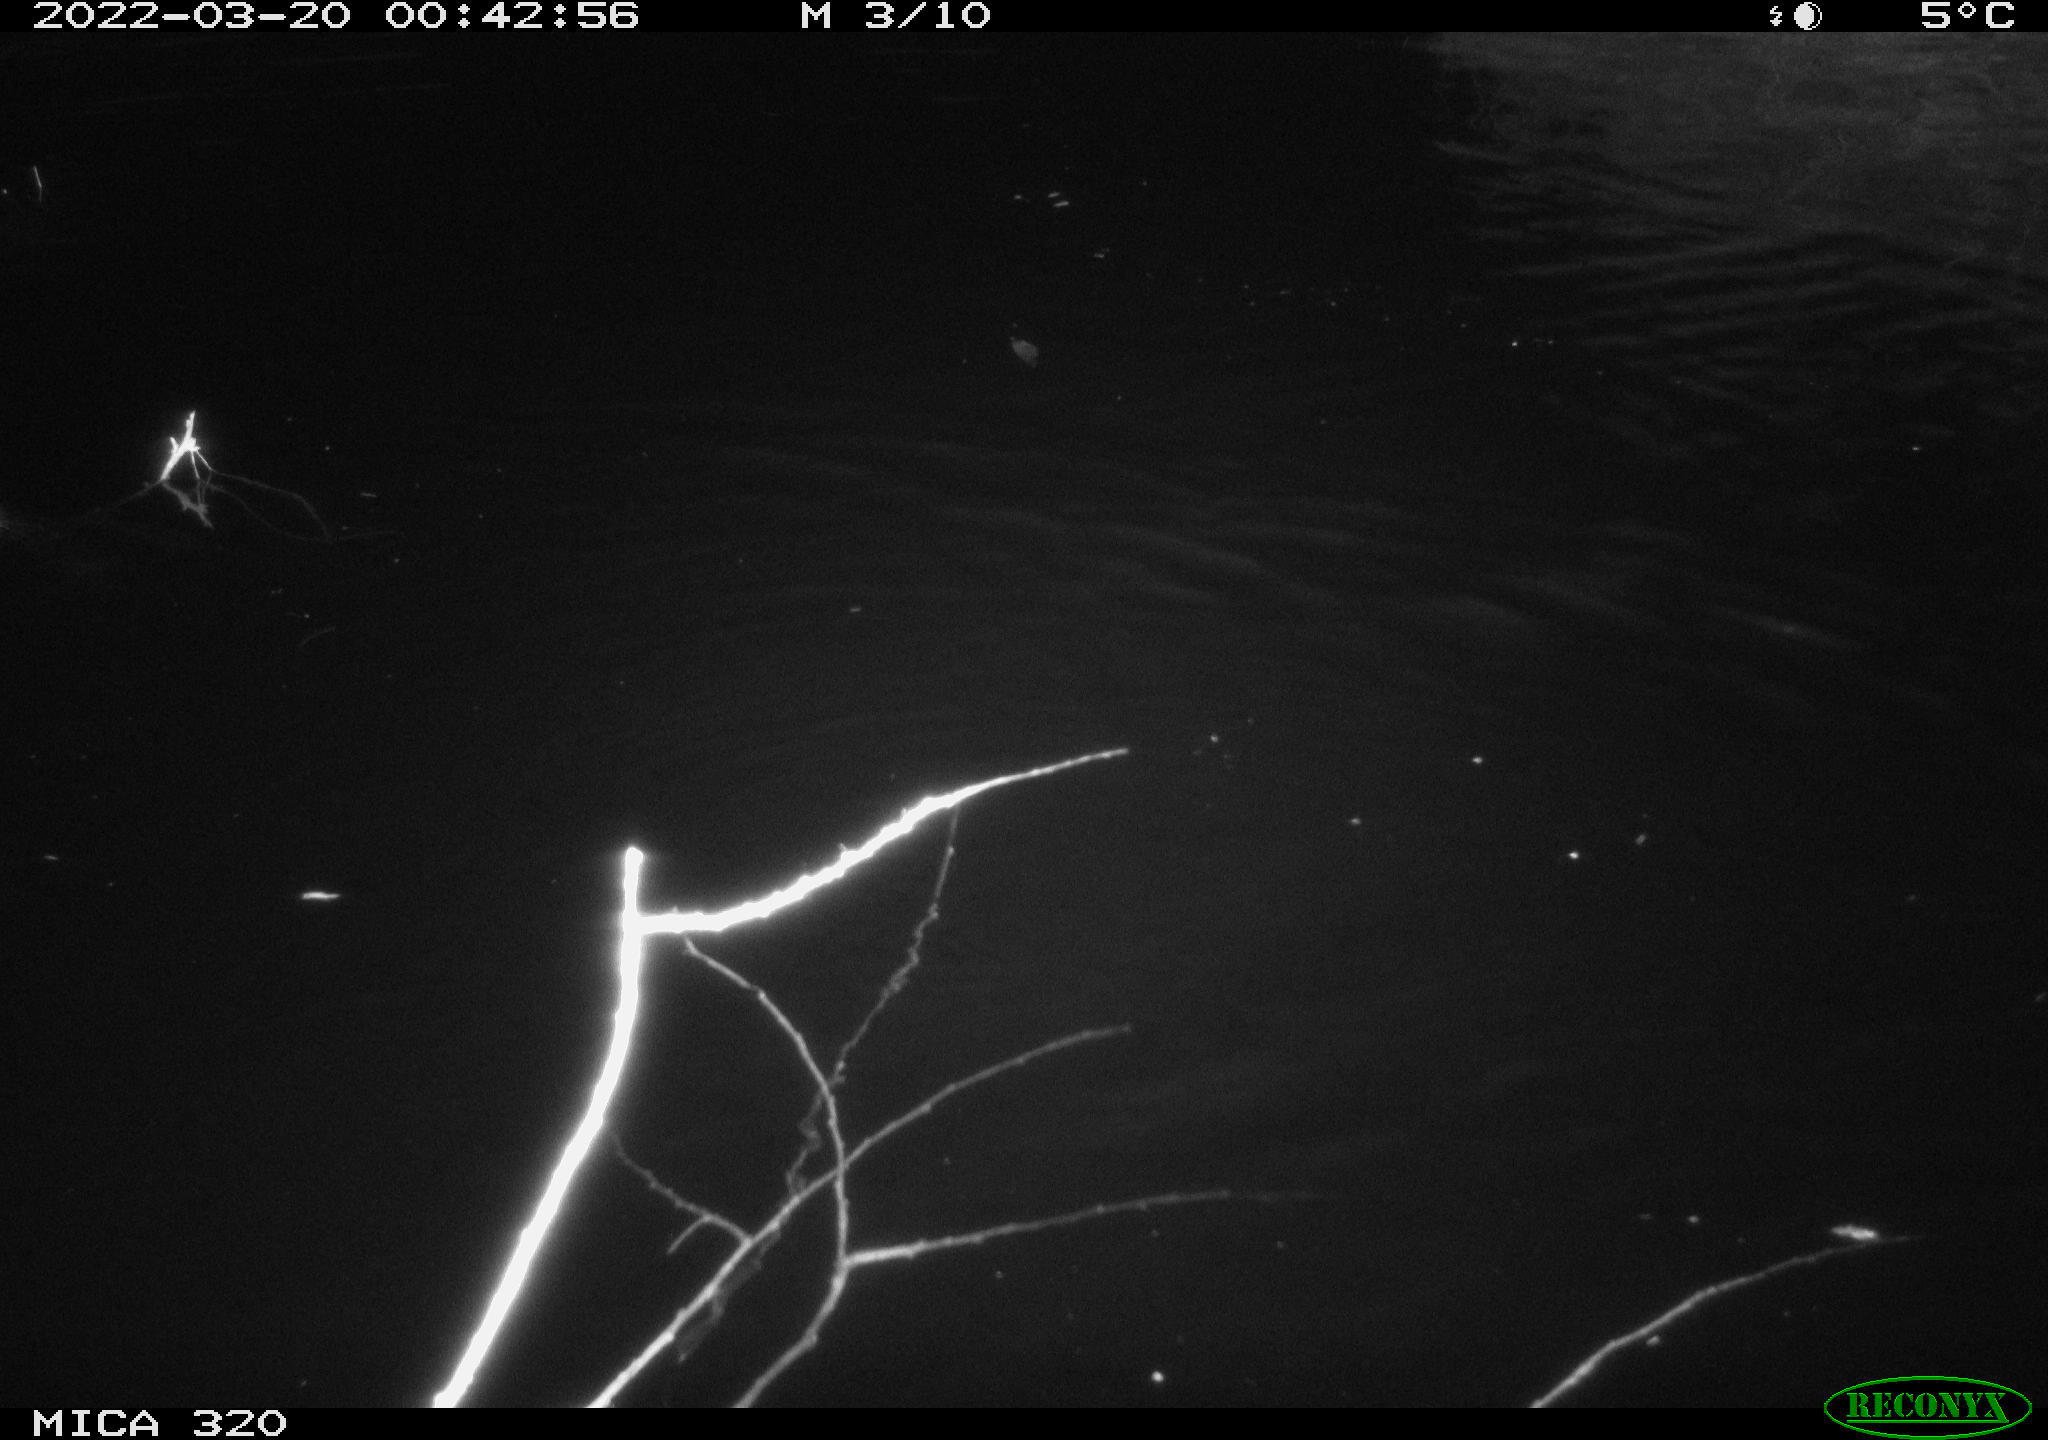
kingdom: Animalia
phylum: Chordata
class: Aves
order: Anseriformes
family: Anatidae
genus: Anas
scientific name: Anas platyrhynchos
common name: Mallard
